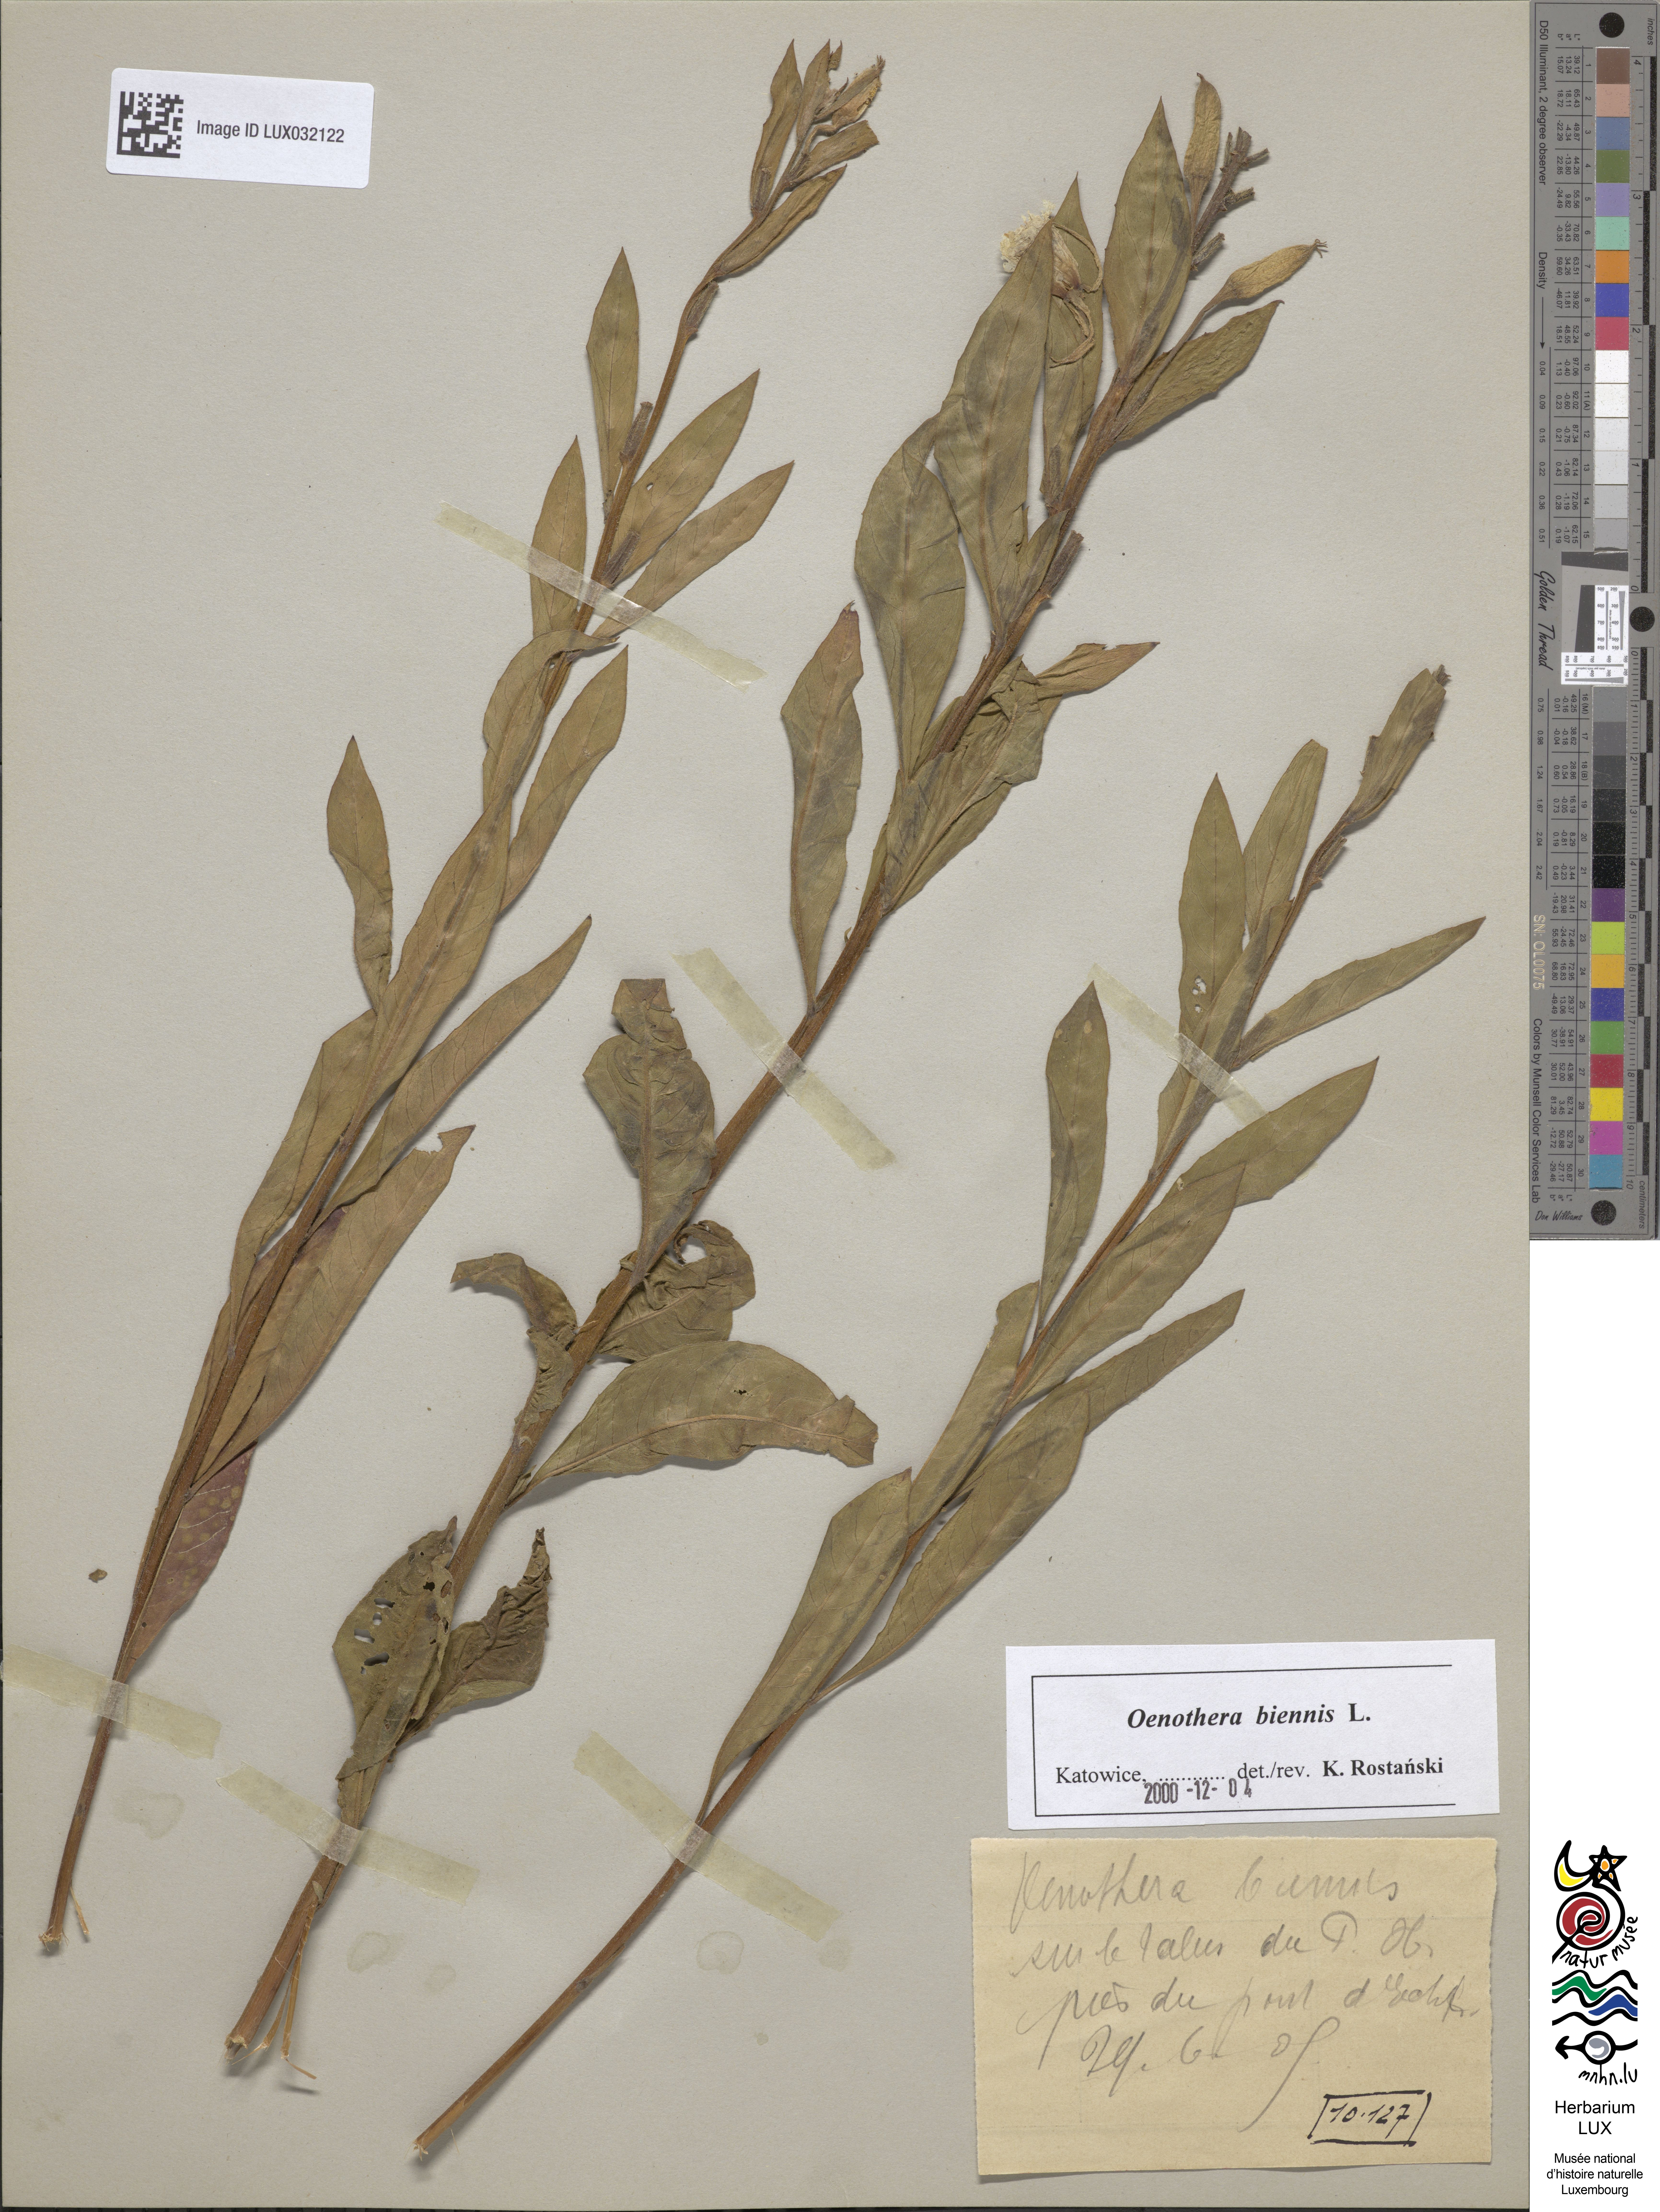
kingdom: Plantae
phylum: Tracheophyta
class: Magnoliopsida
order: Myrtales
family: Onagraceae
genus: Oenothera
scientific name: Oenothera biennis
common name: Common evening-primrose
